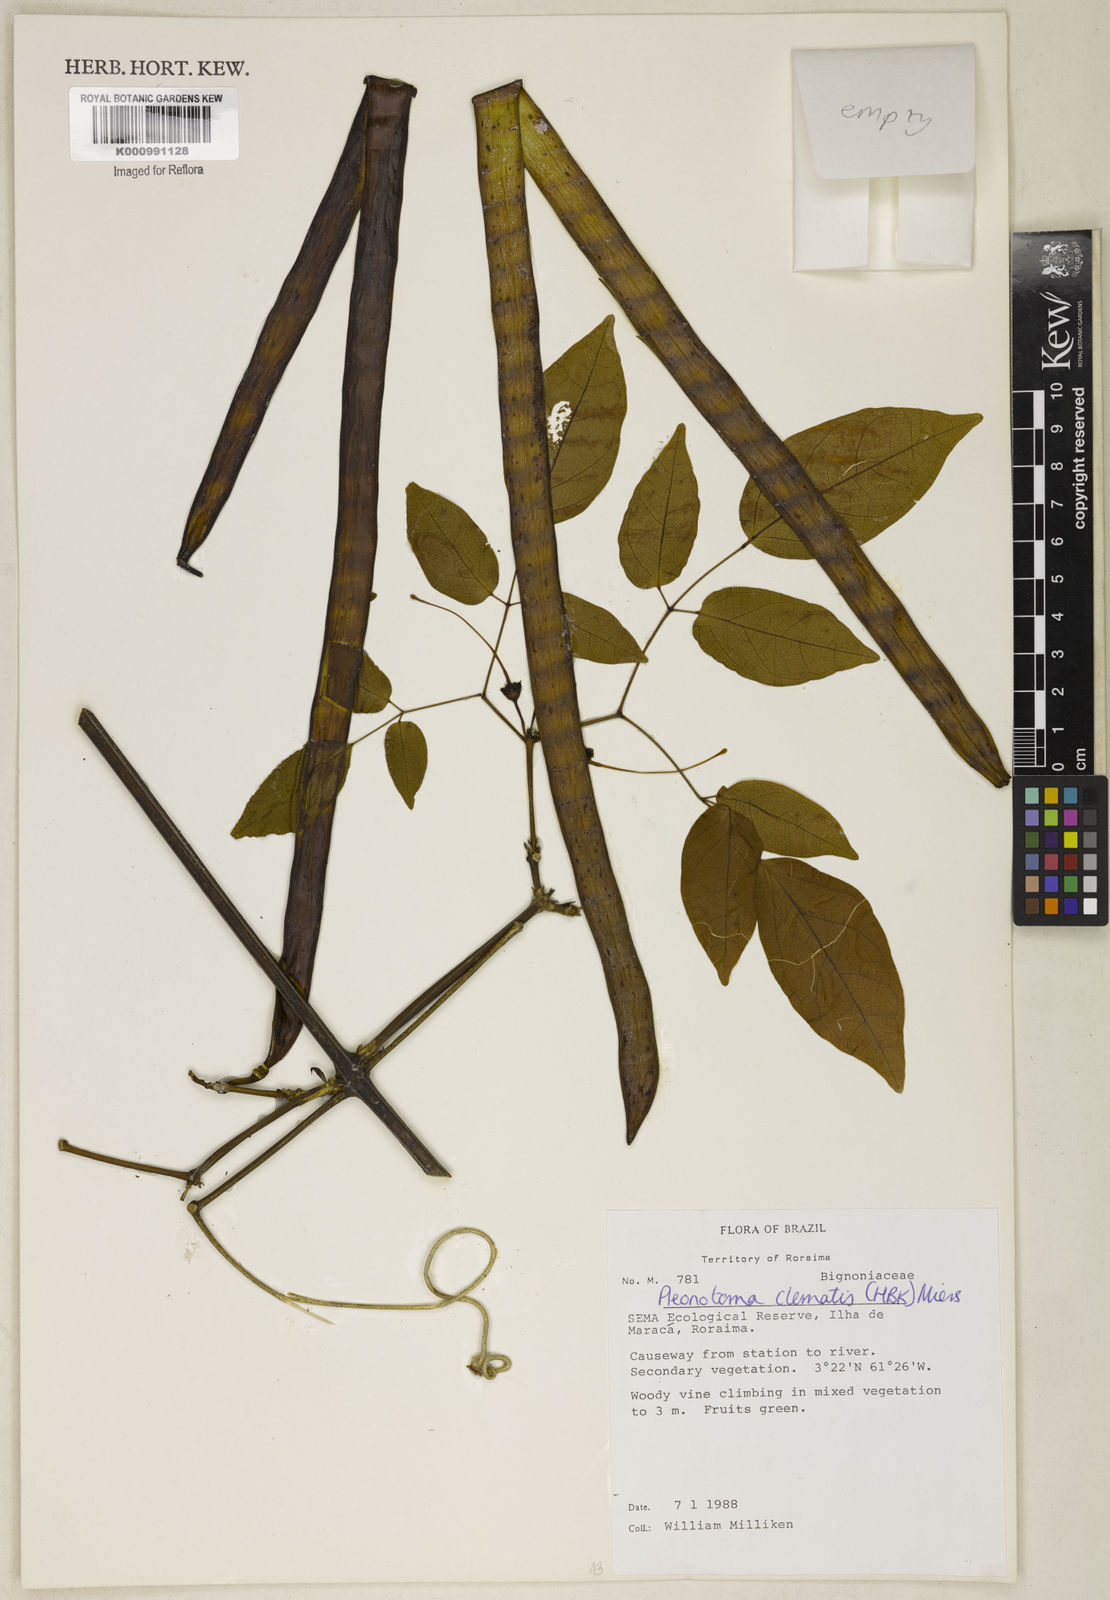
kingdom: Plantae
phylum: Tracheophyta
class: Magnoliopsida
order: Lamiales
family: Bignoniaceae
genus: Pleonotoma
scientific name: Pleonotoma clematis
